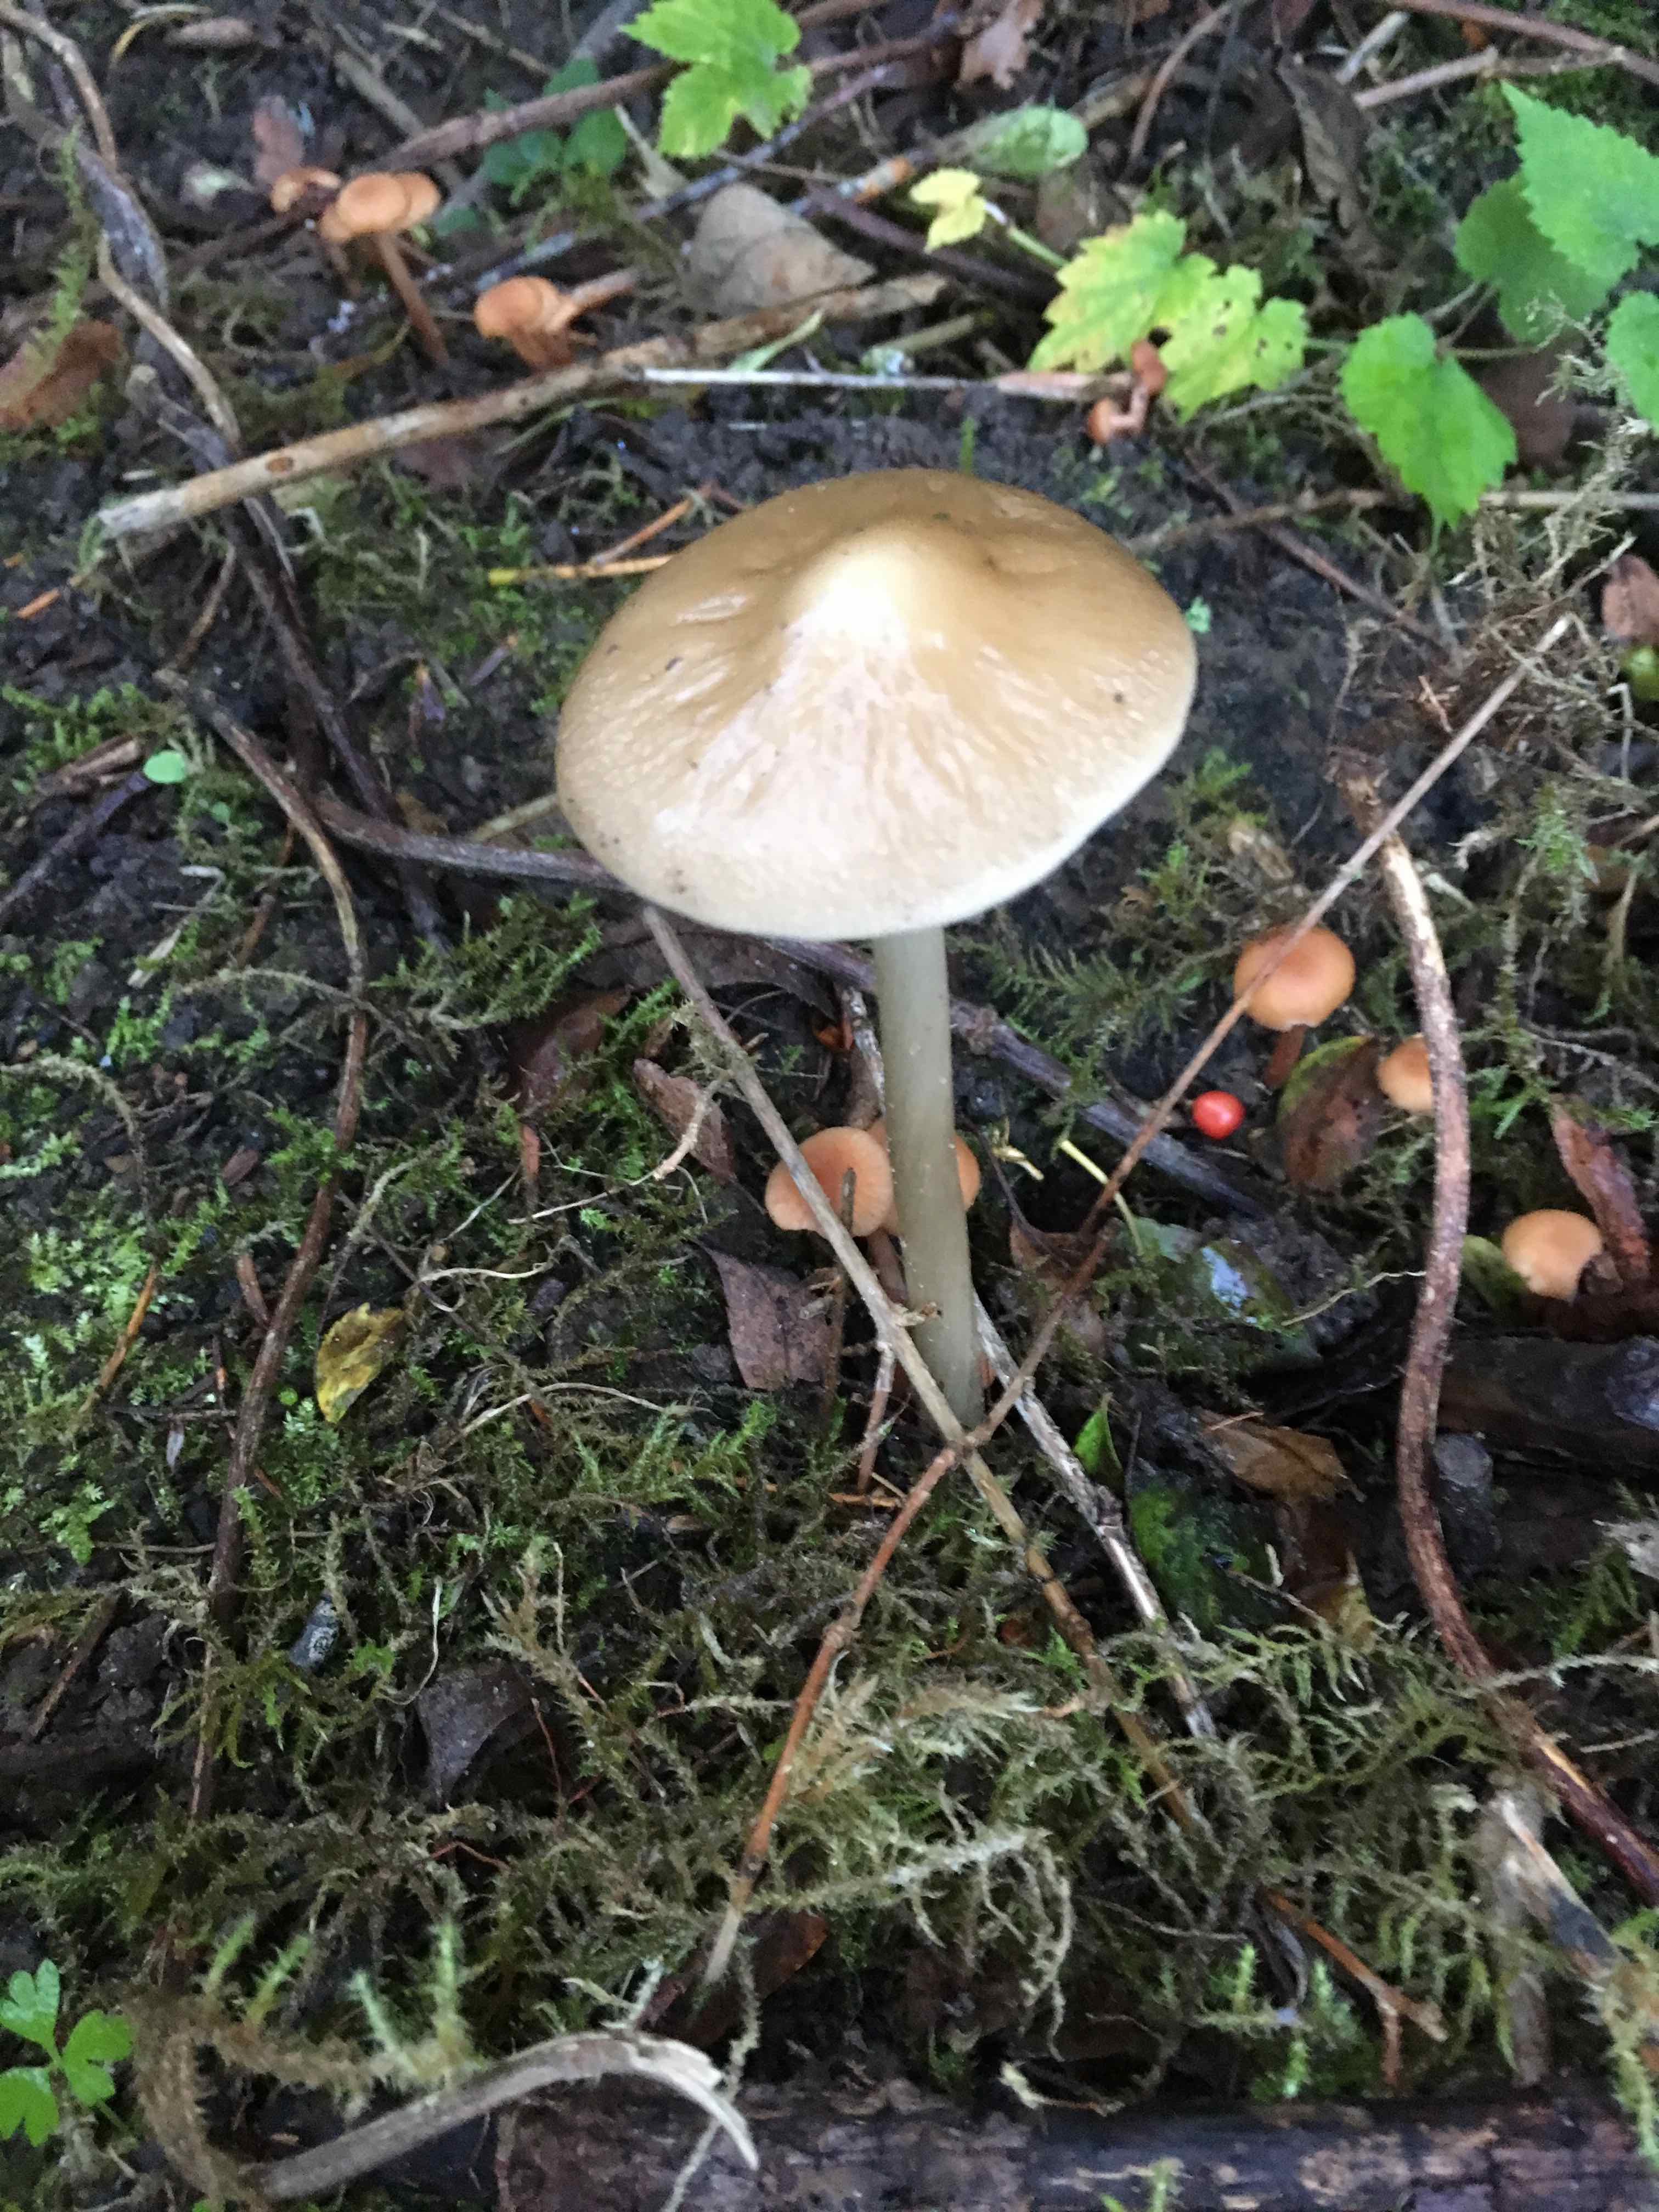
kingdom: Fungi
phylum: Basidiomycota
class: Agaricomycetes
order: Agaricales
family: Physalacriaceae
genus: Hymenopellis
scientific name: Hymenopellis radicata
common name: almindelig pælerodshat
